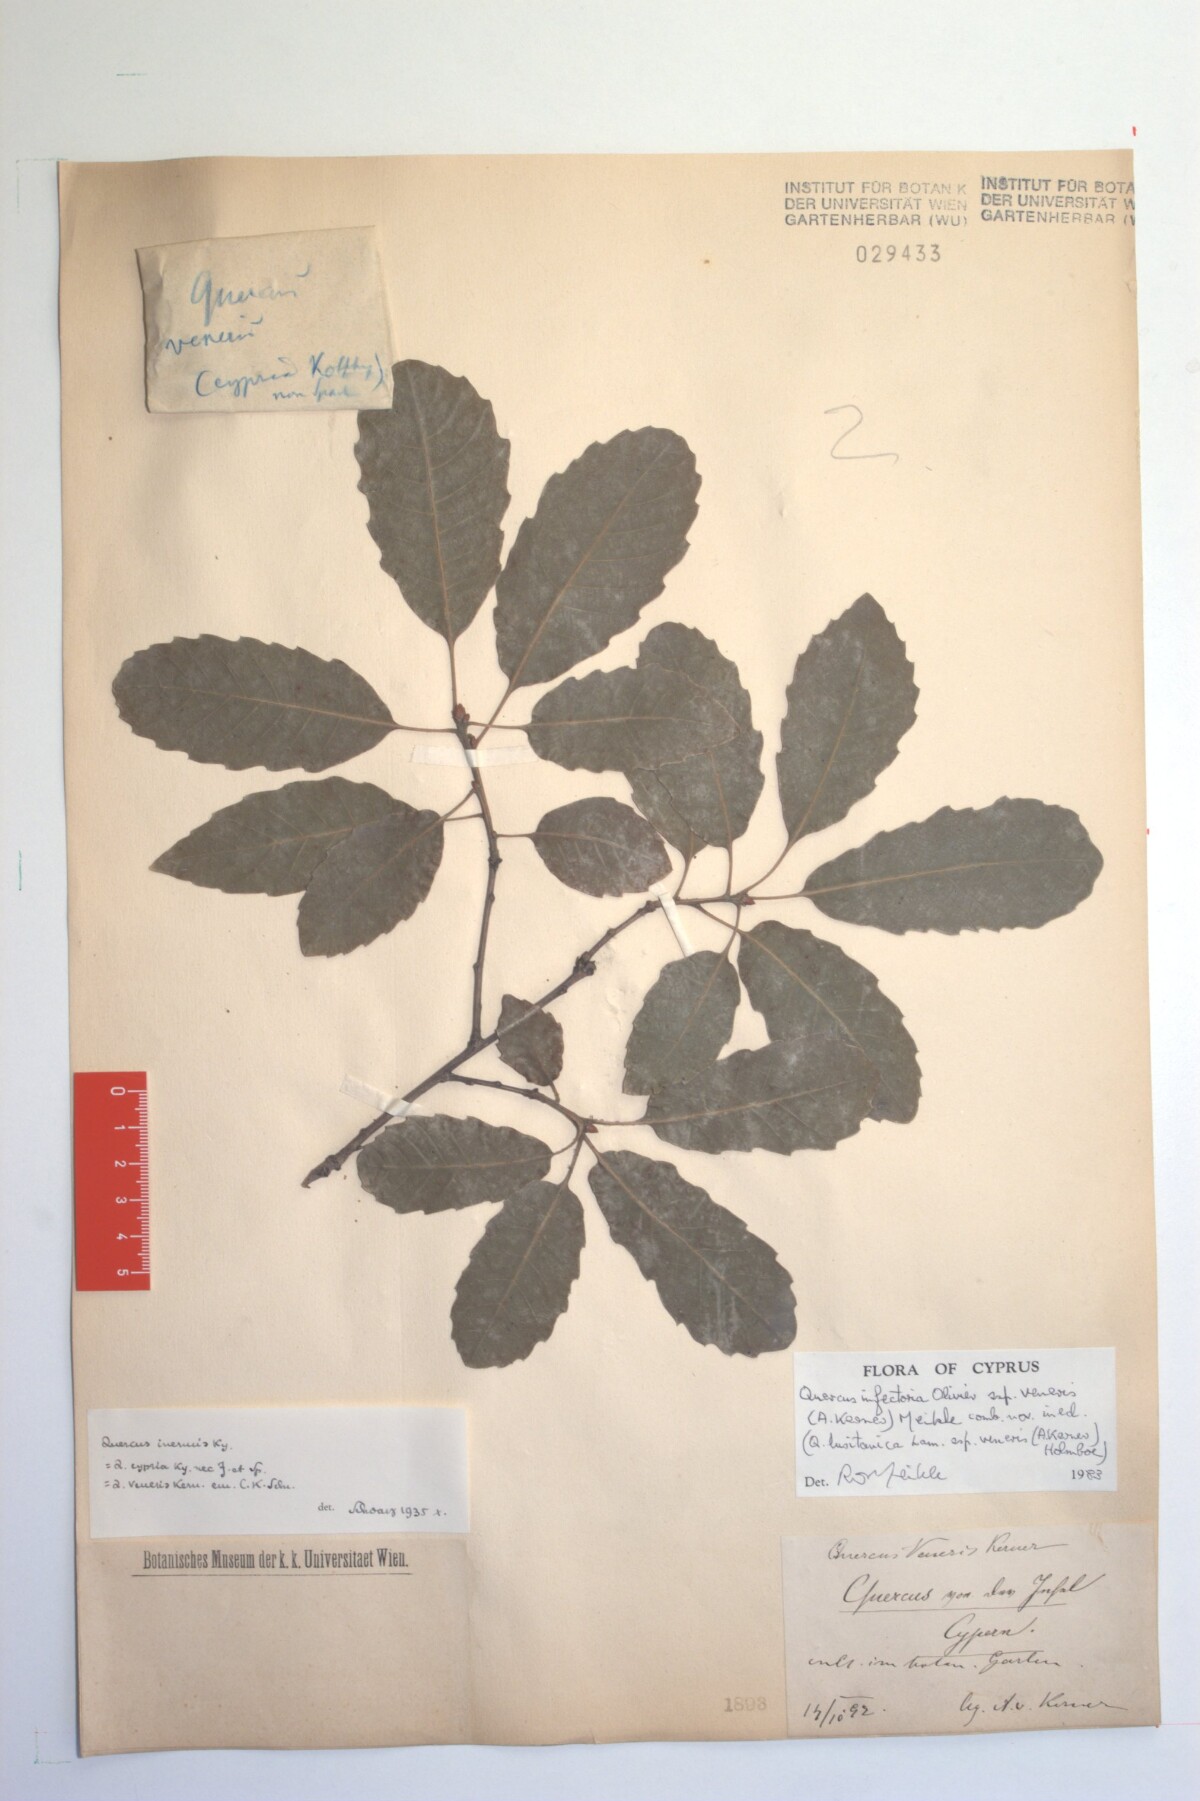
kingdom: Plantae
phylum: Tracheophyta
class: Magnoliopsida
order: Fagales
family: Fagaceae
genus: Quercus
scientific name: Quercus infectoria
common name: Aleppo oak
